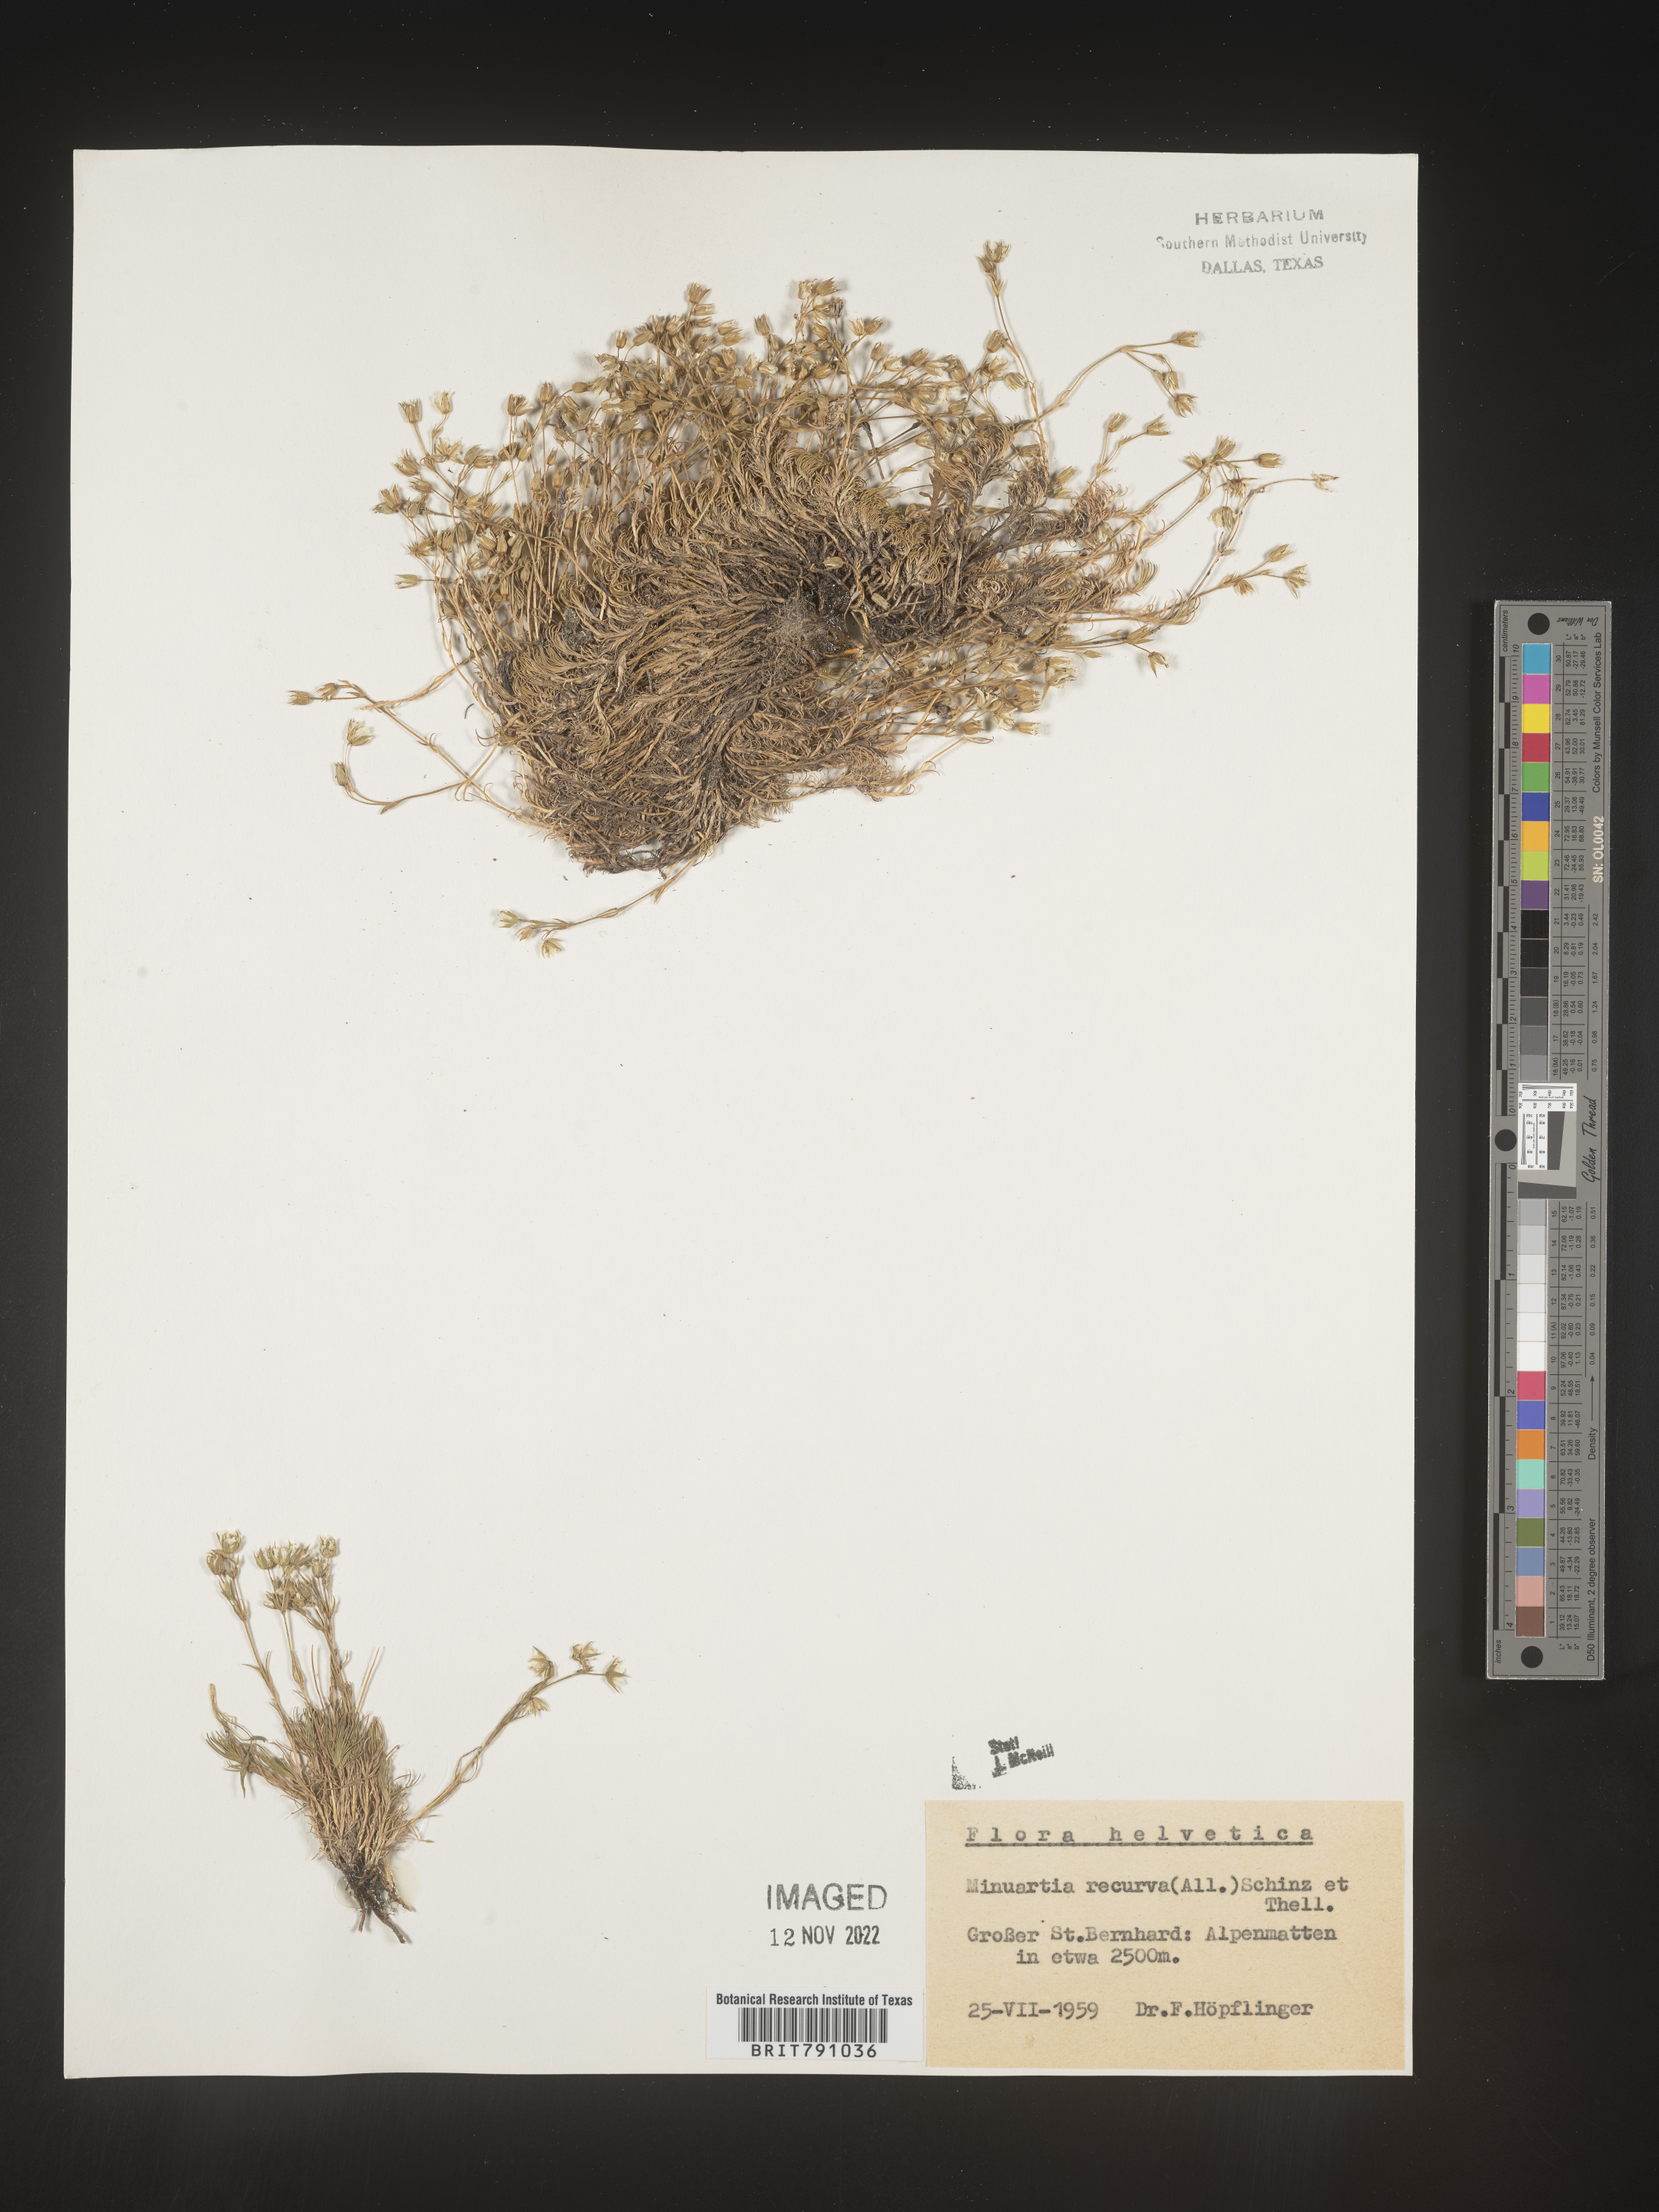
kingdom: Plantae
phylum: Tracheophyta
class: Magnoliopsida
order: Caryophyllales
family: Caryophyllaceae
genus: Minuartia
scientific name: Minuartia
